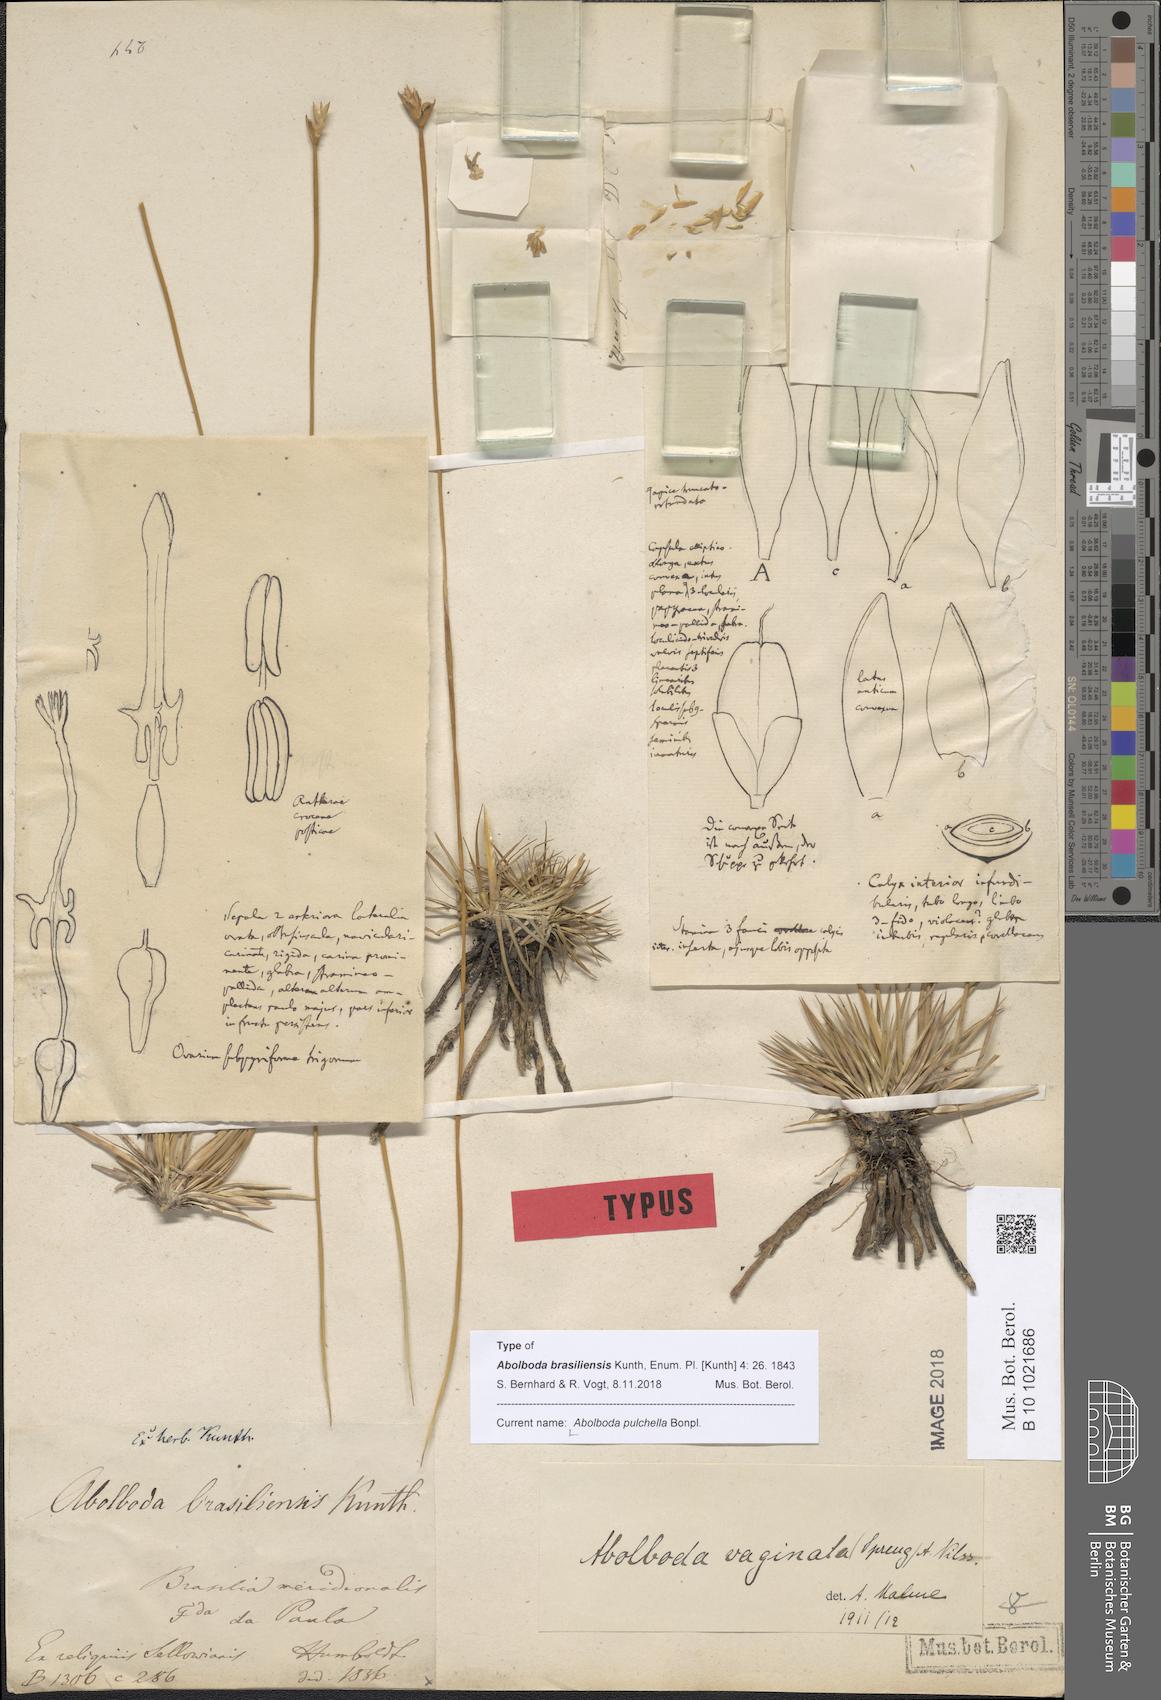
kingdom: Plantae
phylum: Tracheophyta
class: Liliopsida
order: Poales
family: Xyridaceae
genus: Abolboda
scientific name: Abolboda pulchella
